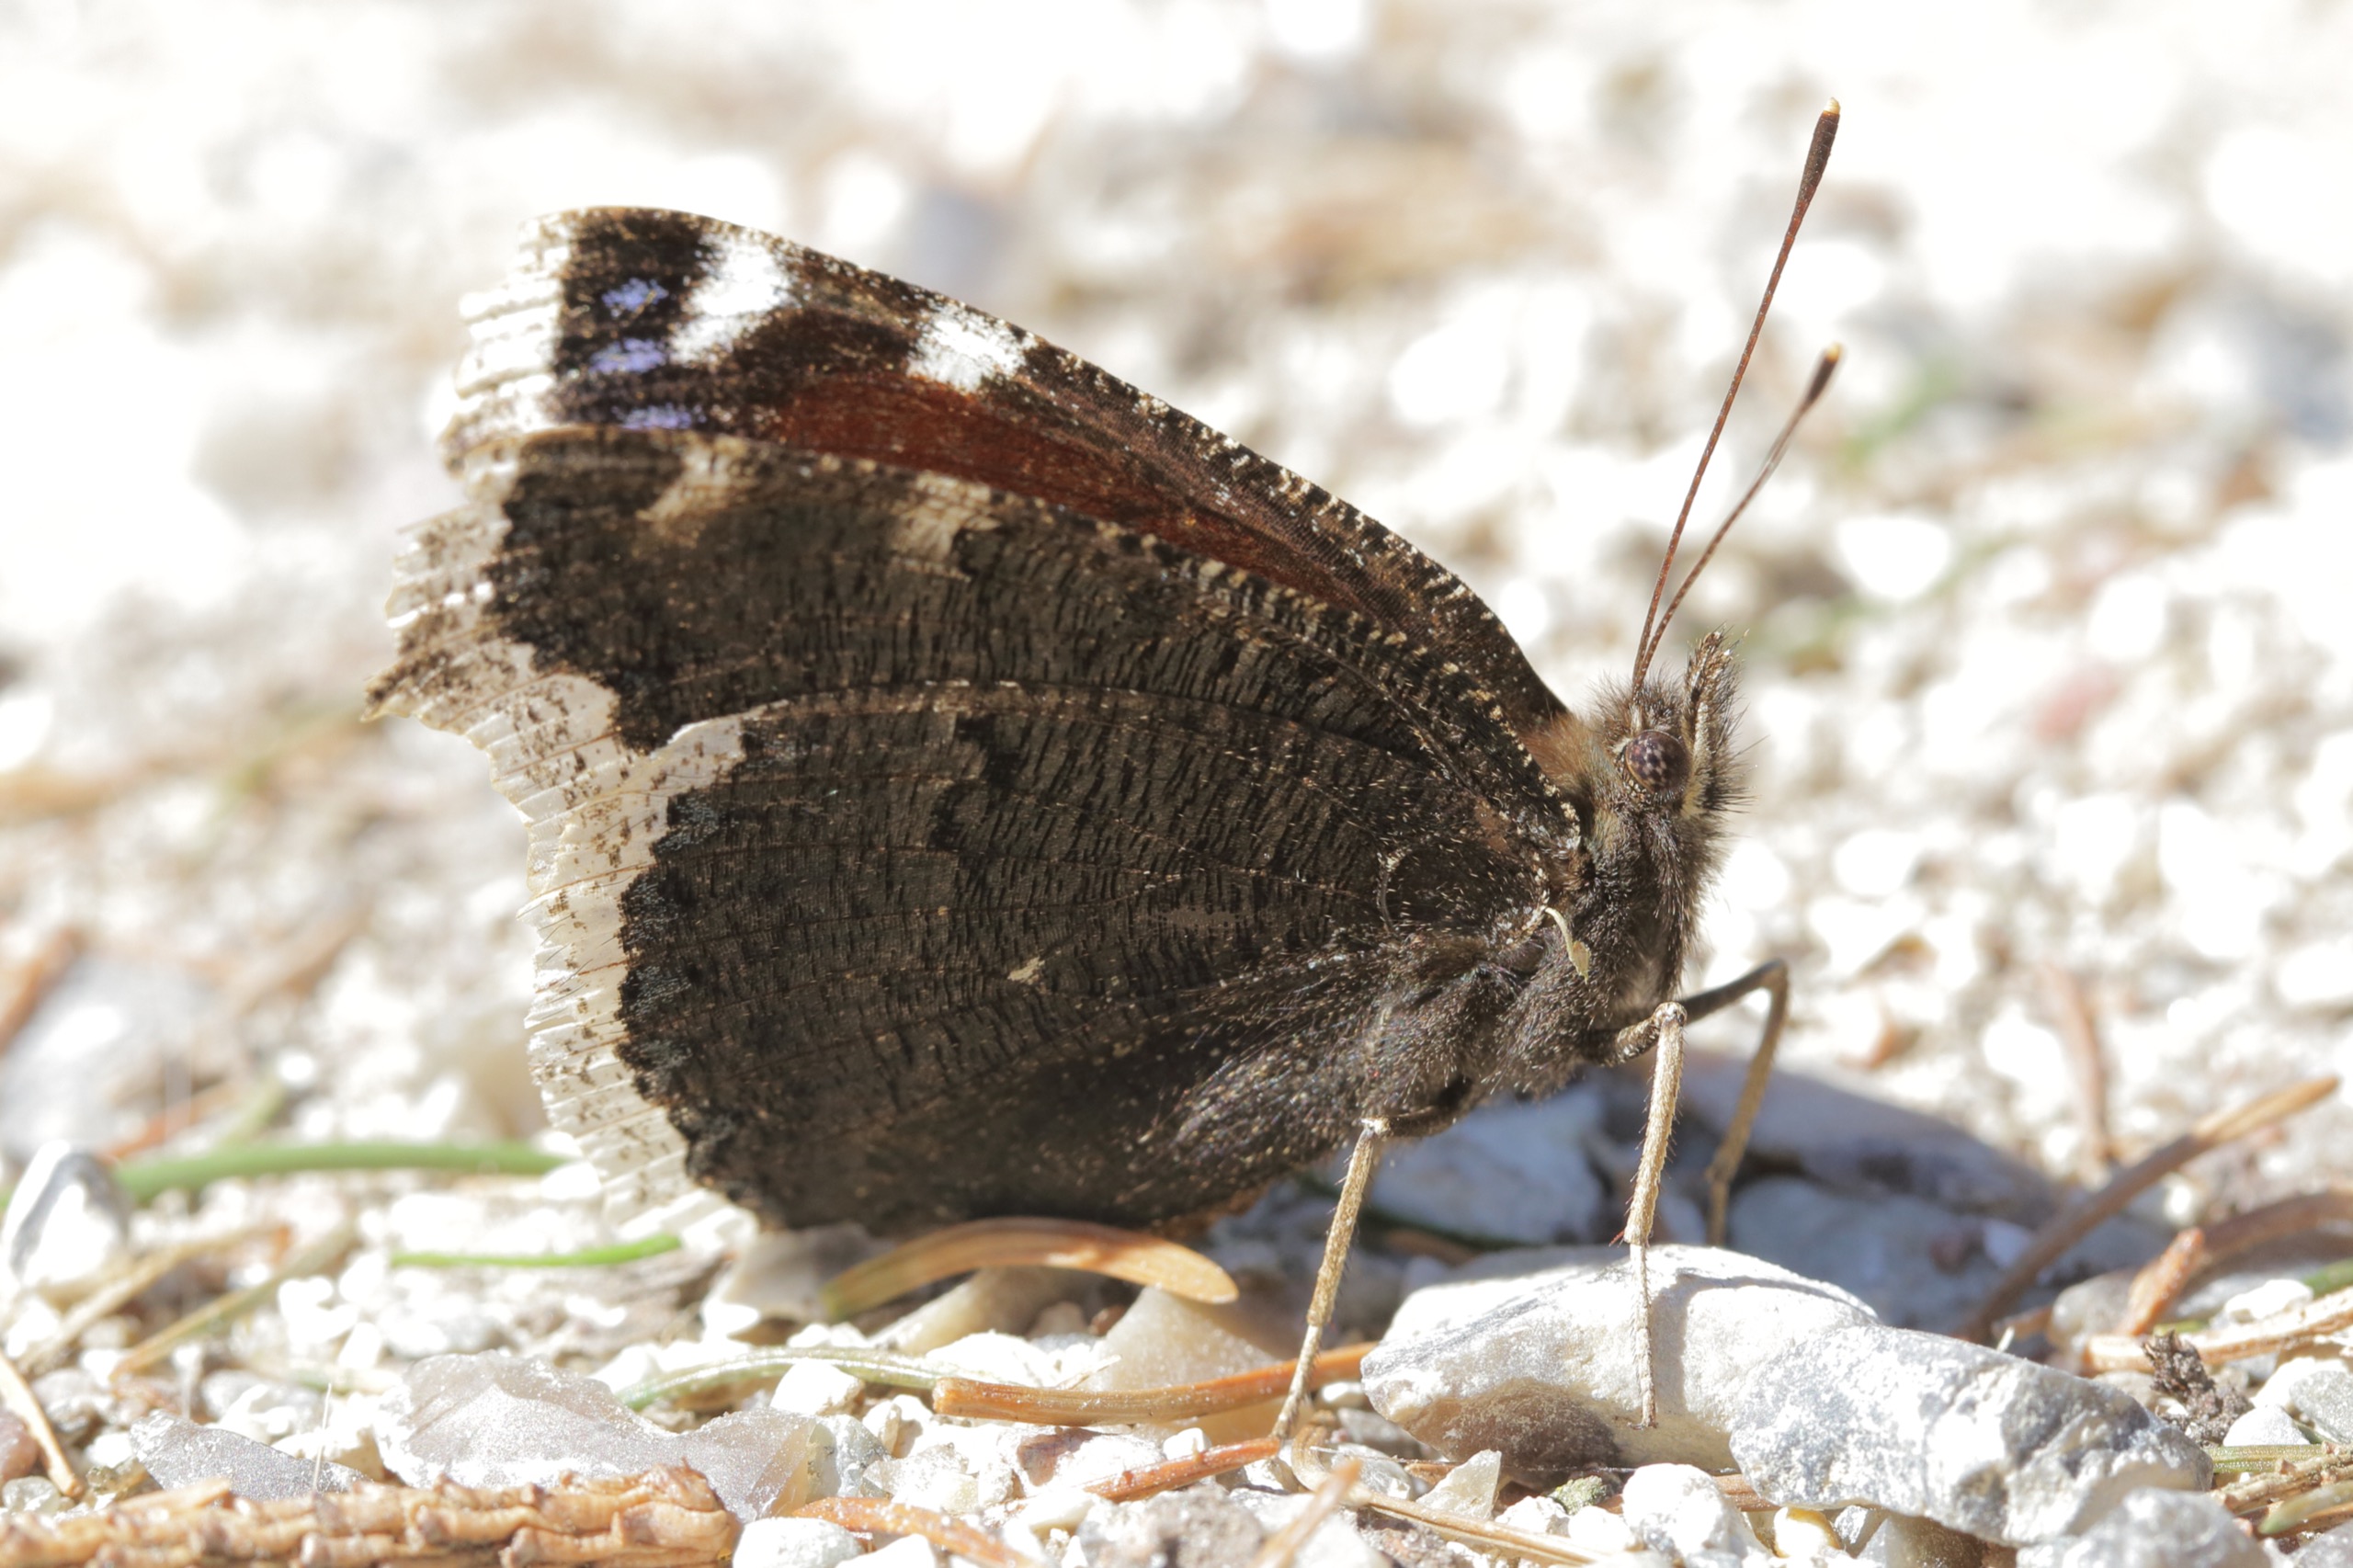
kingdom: Animalia
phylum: Arthropoda
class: Insecta
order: Lepidoptera
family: Nymphalidae
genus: Nymphalis
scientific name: Nymphalis antiopa
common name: Sørgekåbe
